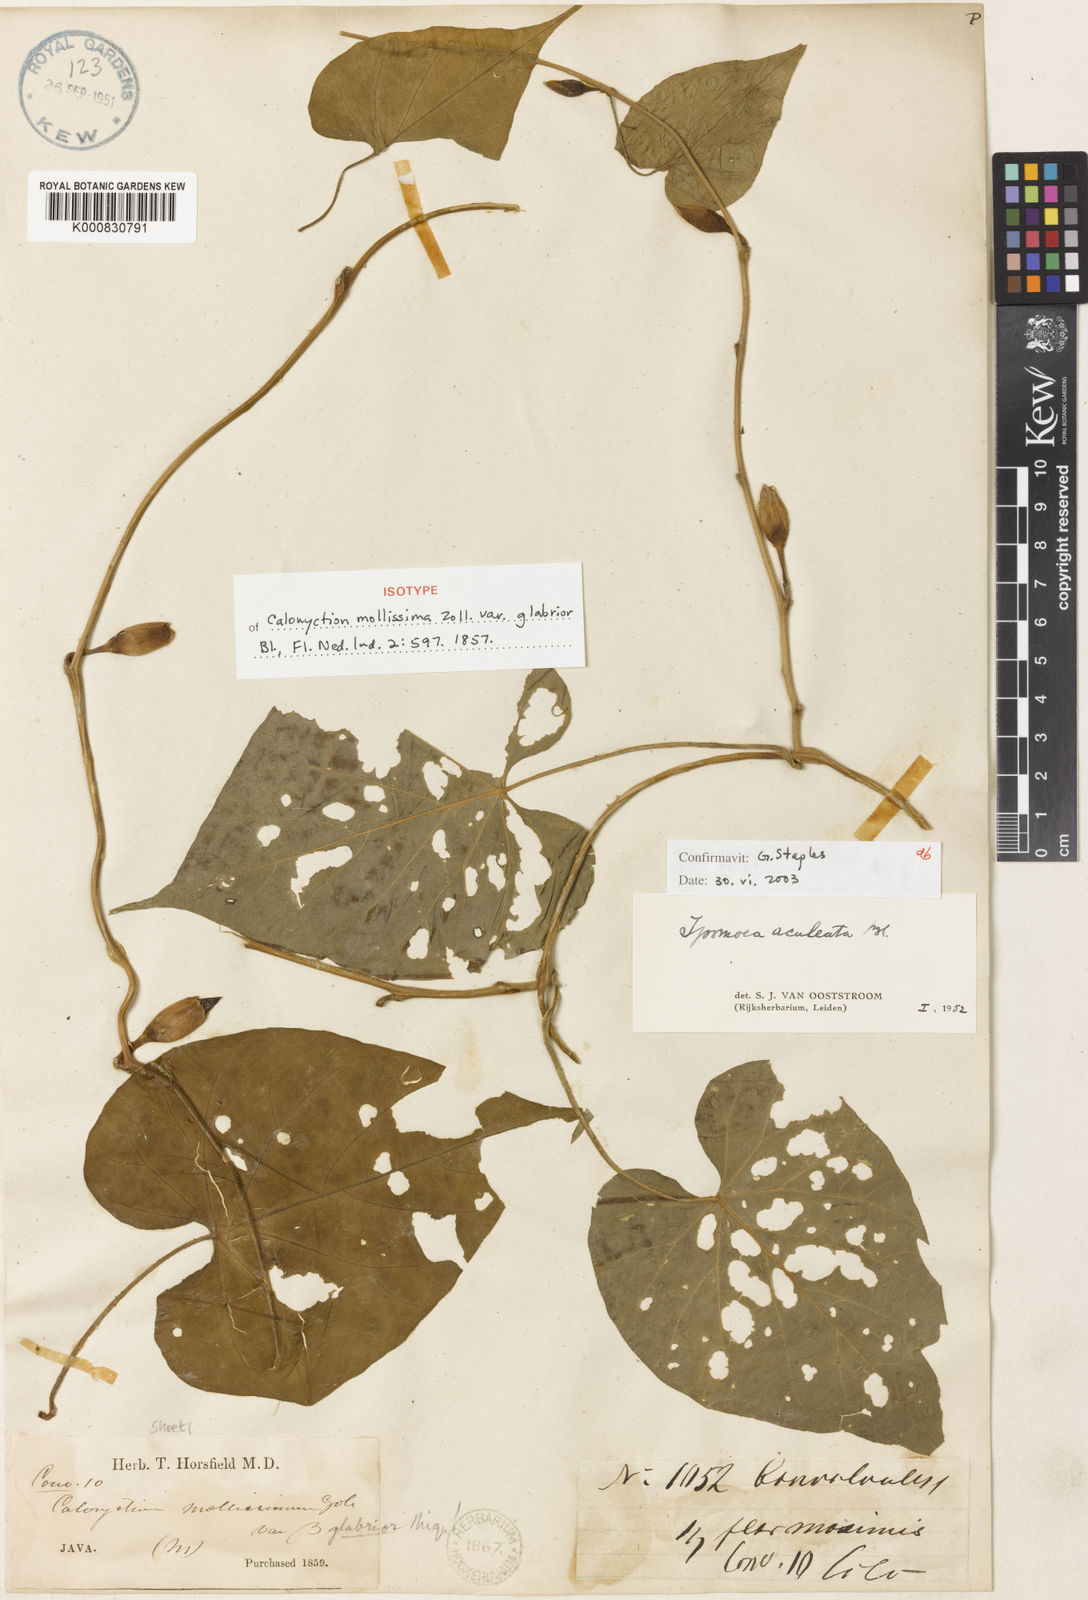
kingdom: Plantae
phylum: Tracheophyta
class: Magnoliopsida
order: Solanales
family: Convolvulaceae
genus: Ipomoea
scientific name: Ipomoea aculeata
